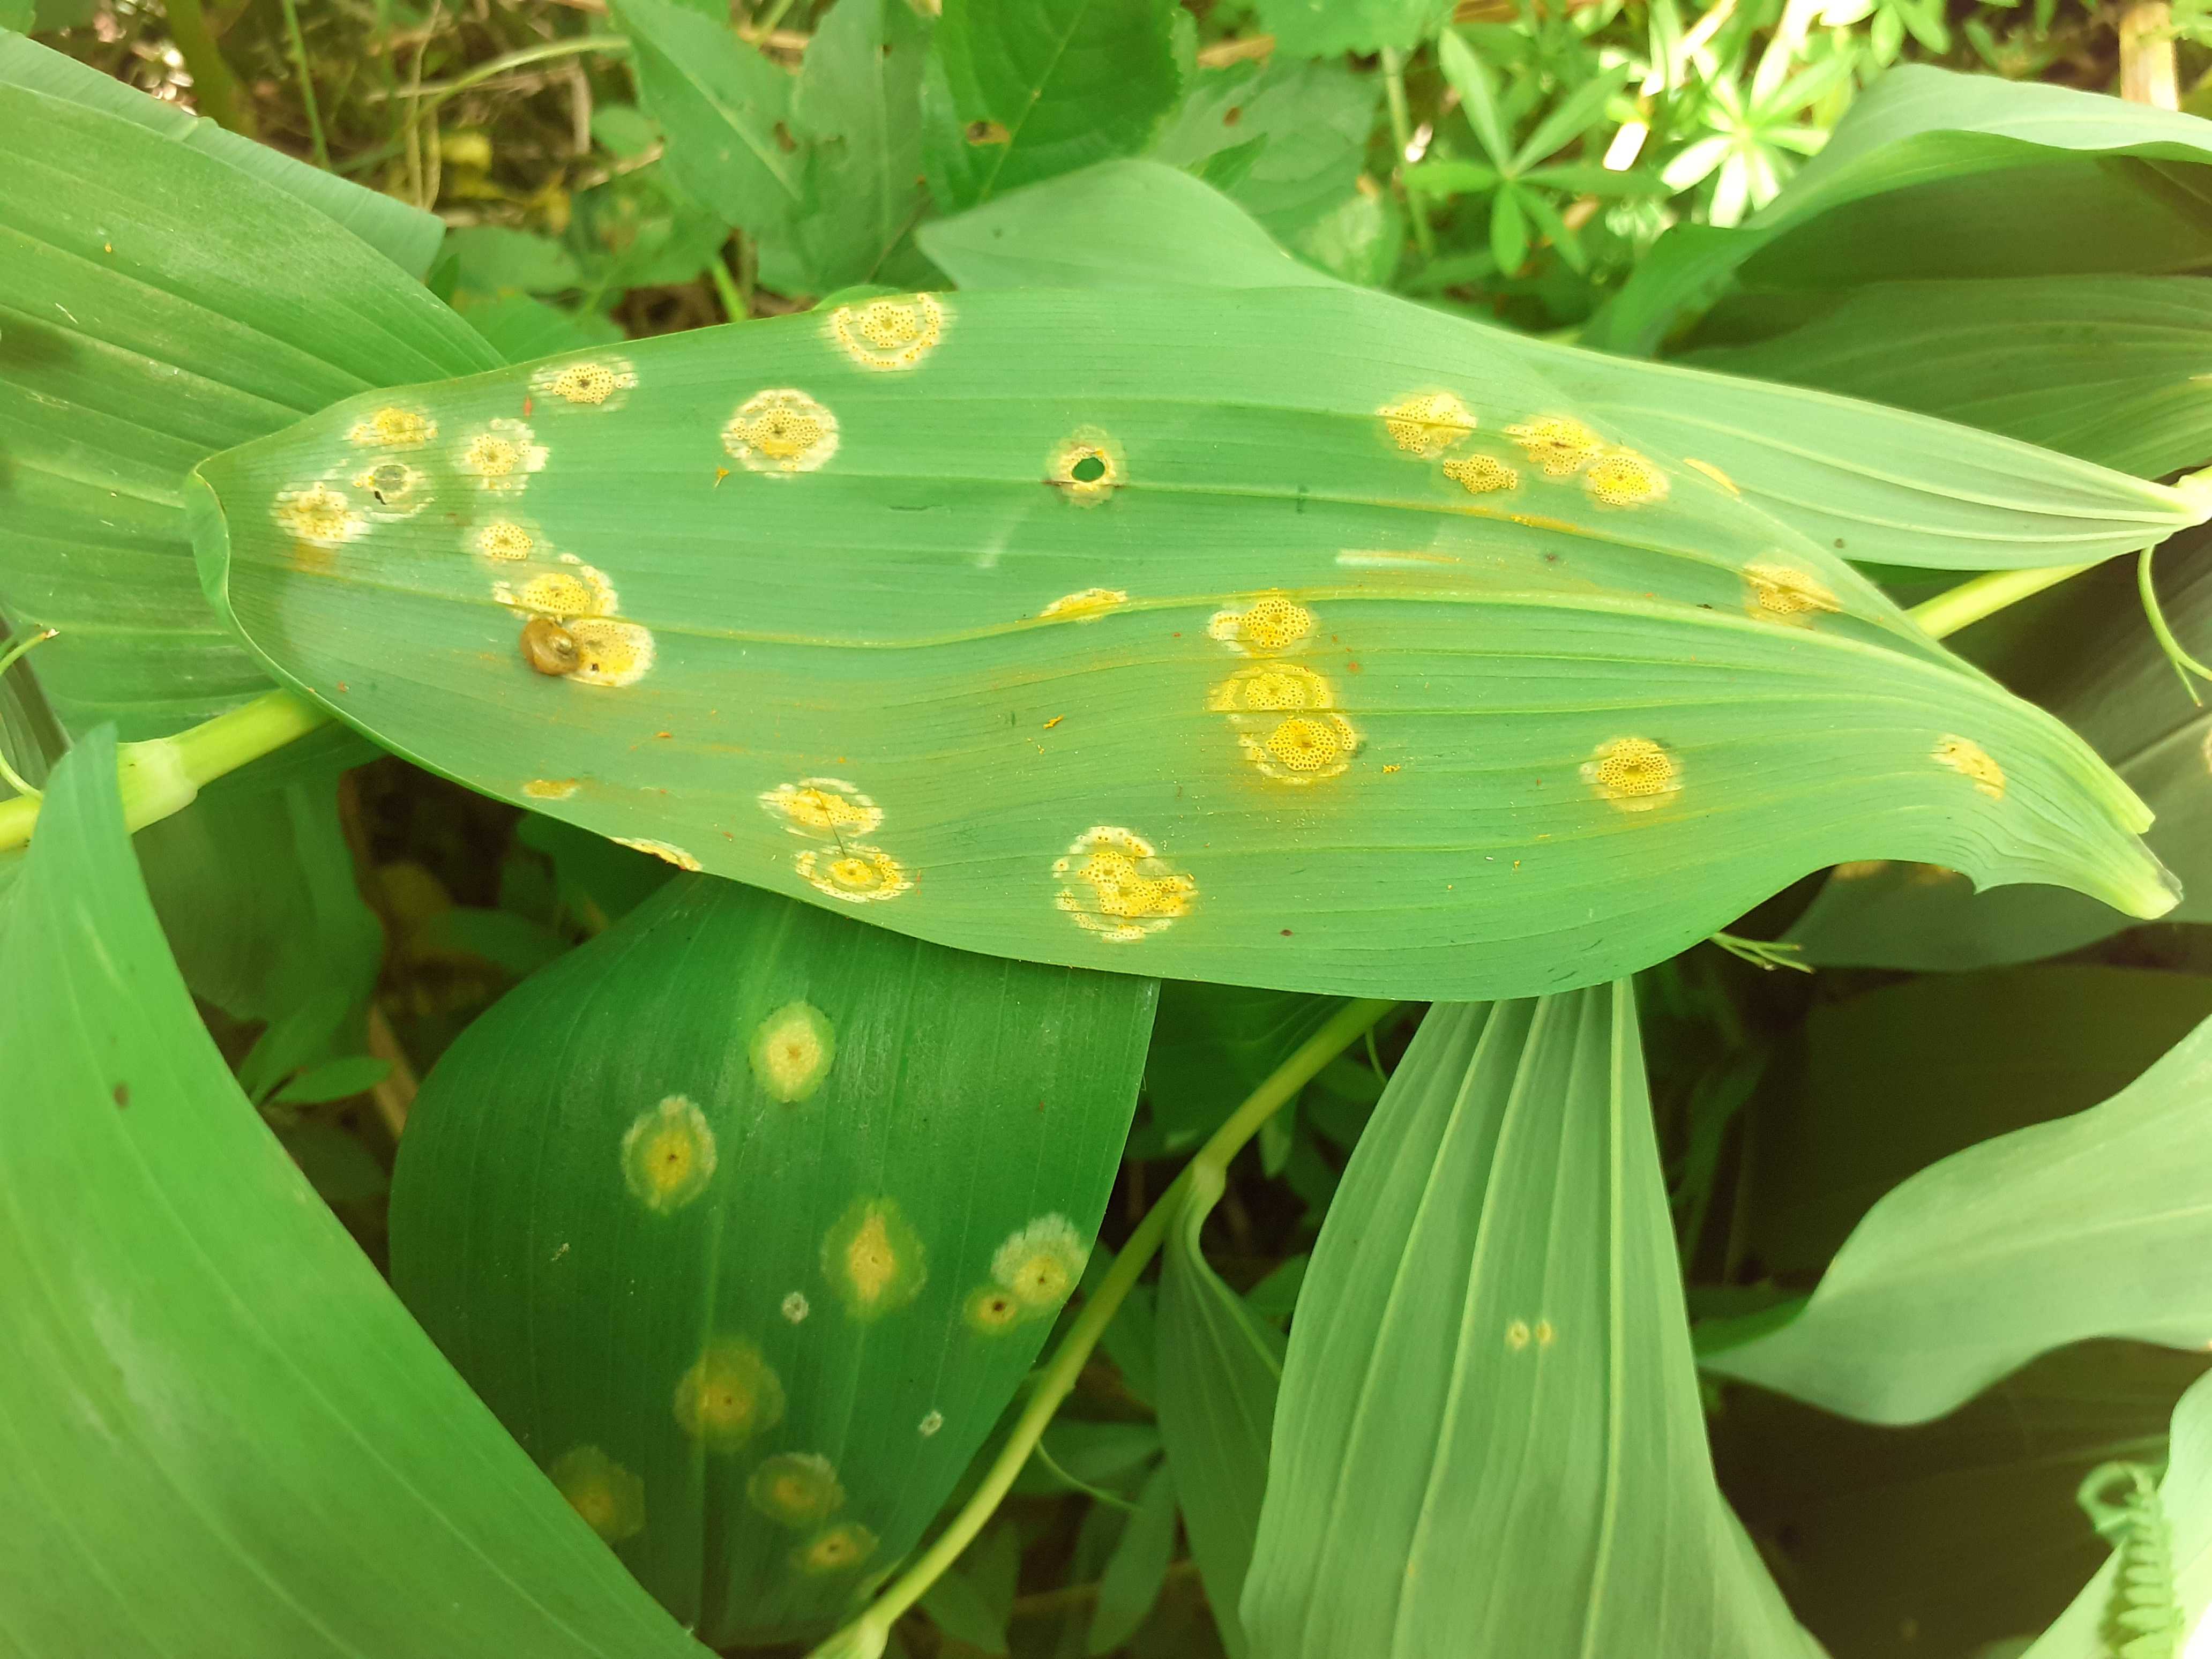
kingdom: Fungi
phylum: Basidiomycota
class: Pucciniomycetes
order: Pucciniales
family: Pucciniaceae
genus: Puccinia
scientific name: Puccinia sessilis
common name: Arum rust
